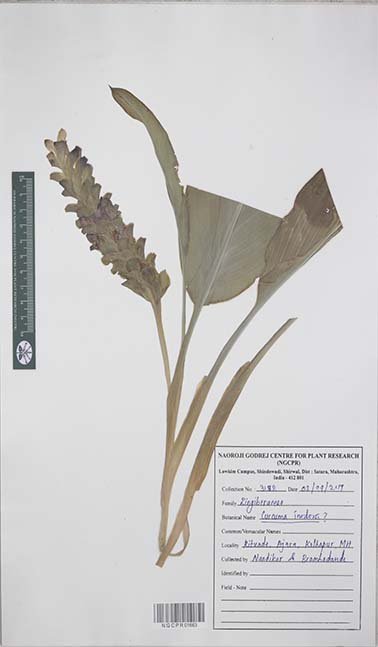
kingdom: Plantae
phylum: Tracheophyta
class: Liliopsida
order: Zingiberales
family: Zingiberaceae
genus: Curcuma
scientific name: Curcuma inodora
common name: Hidden lily
